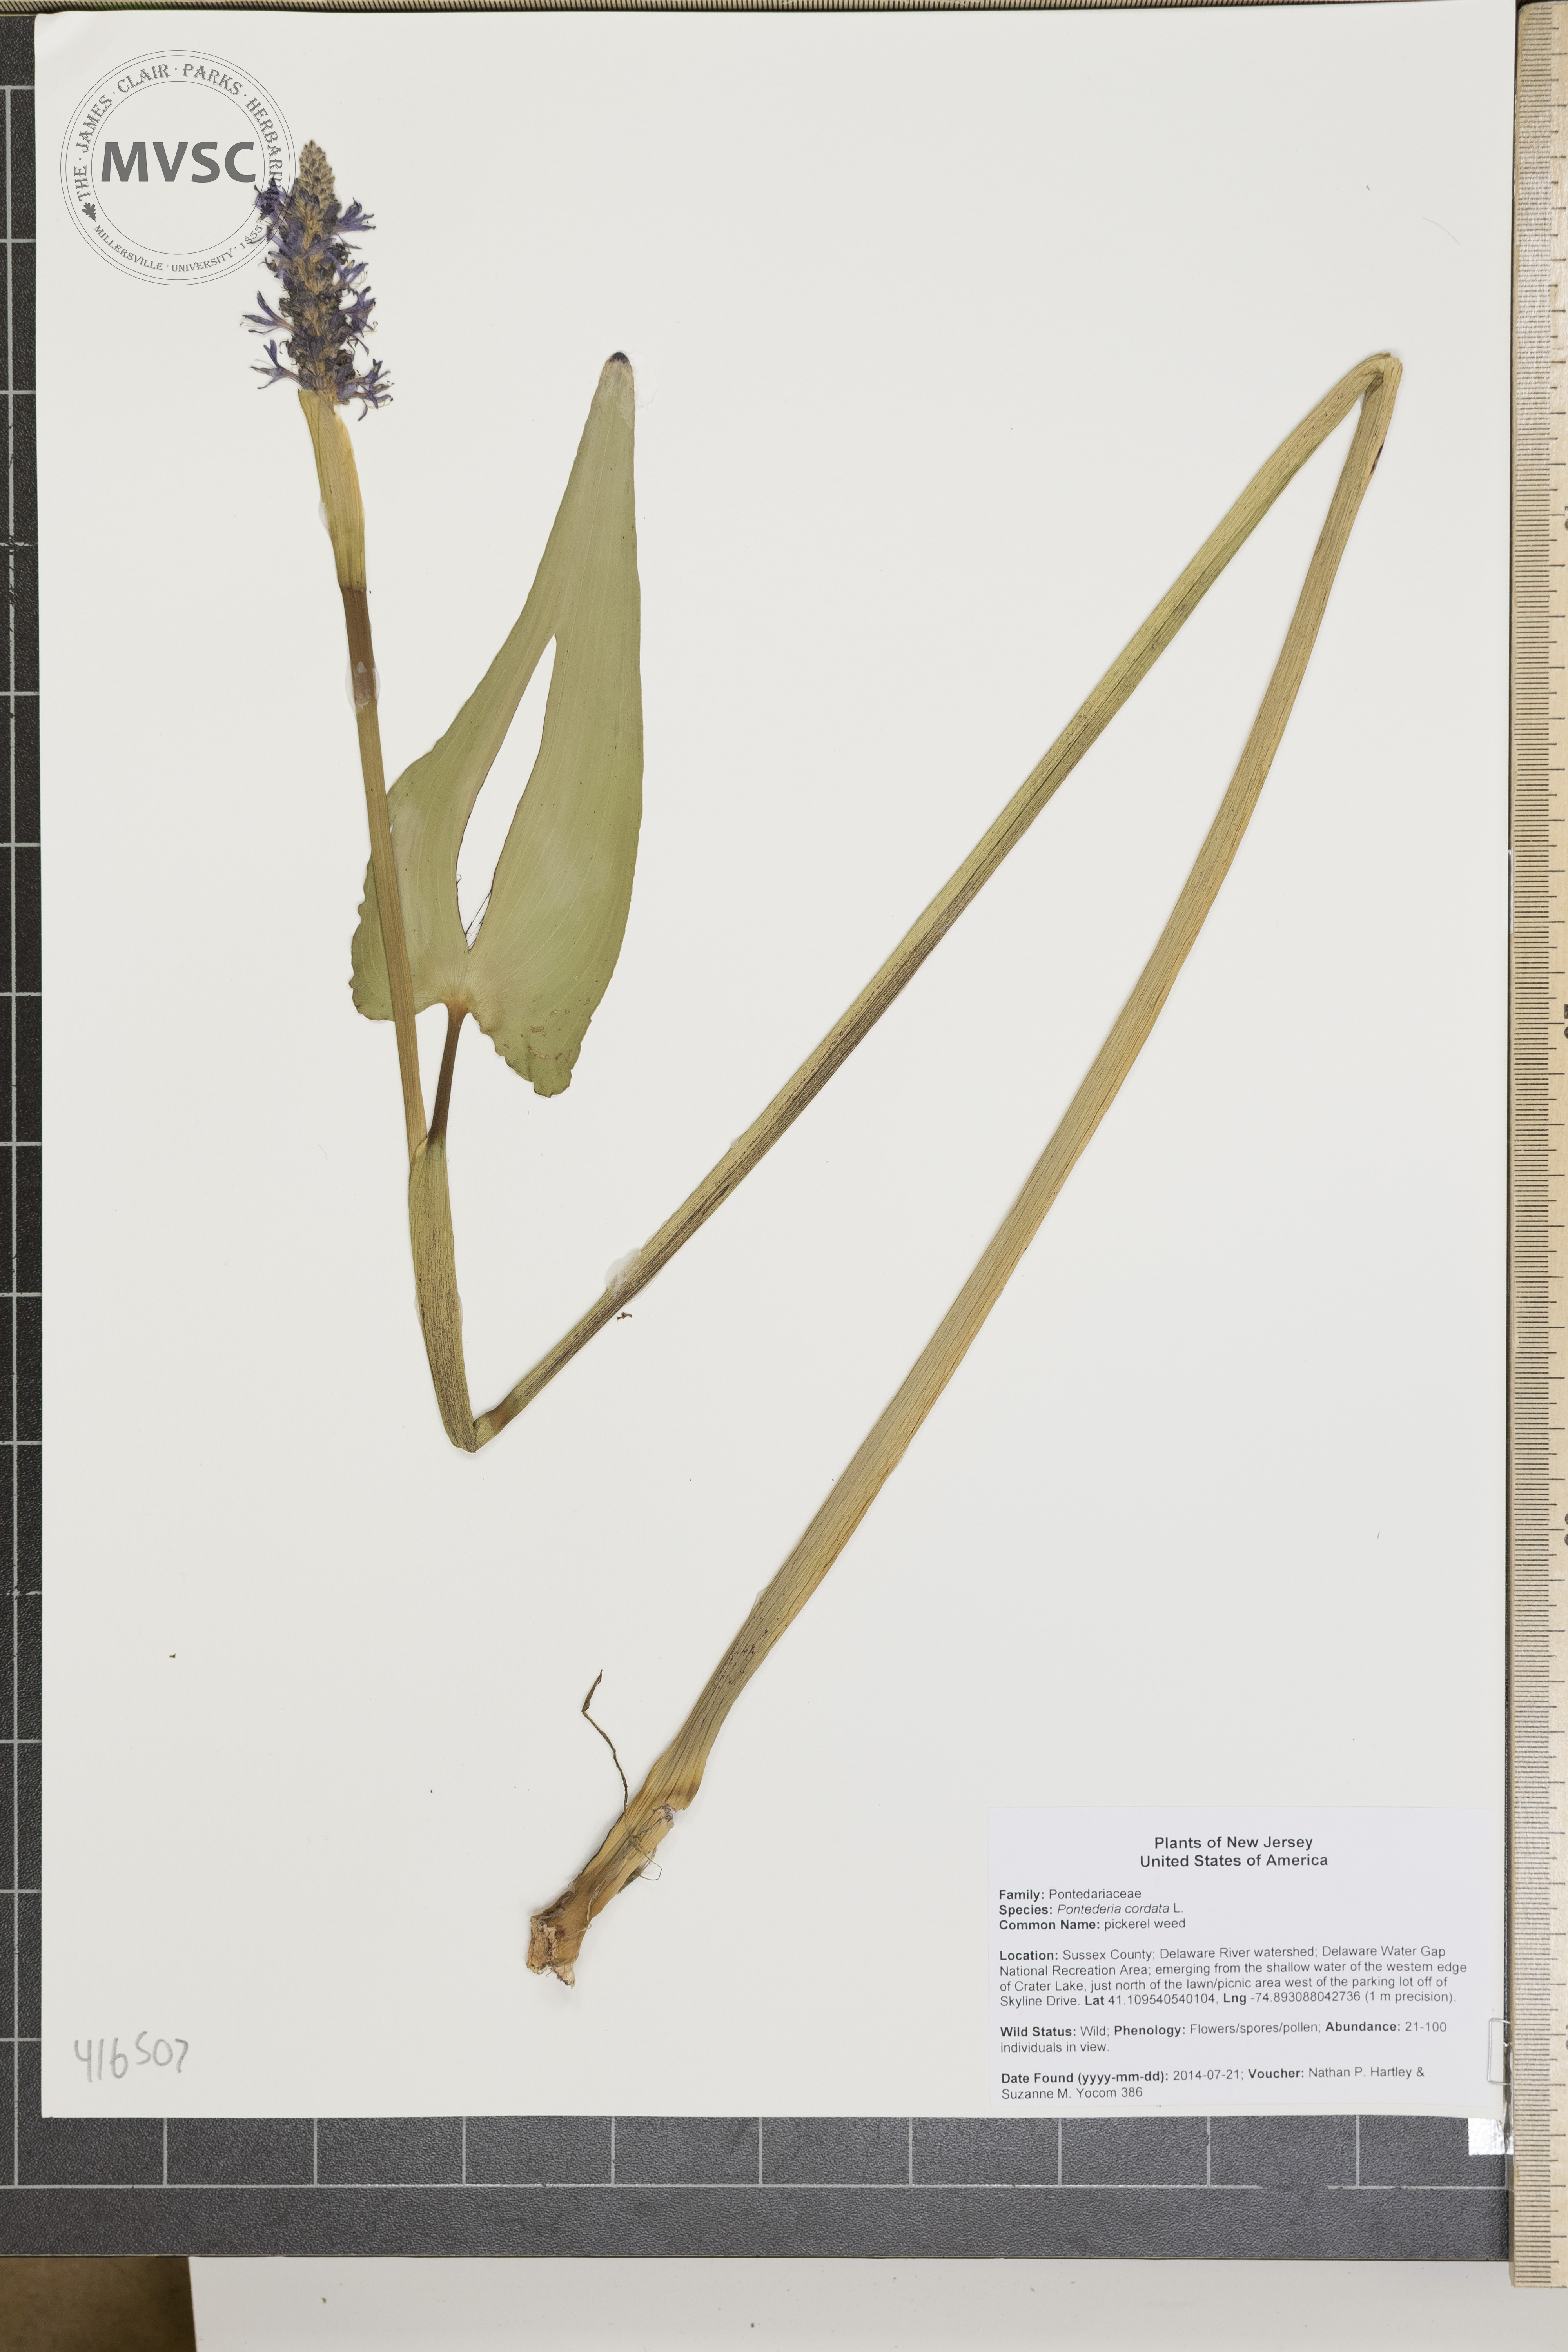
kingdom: Plantae
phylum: Tracheophyta
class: Liliopsida
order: Commelinales
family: Pontederiaceae
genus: Pontederia
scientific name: Pontederia cordata
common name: pickerel weed
